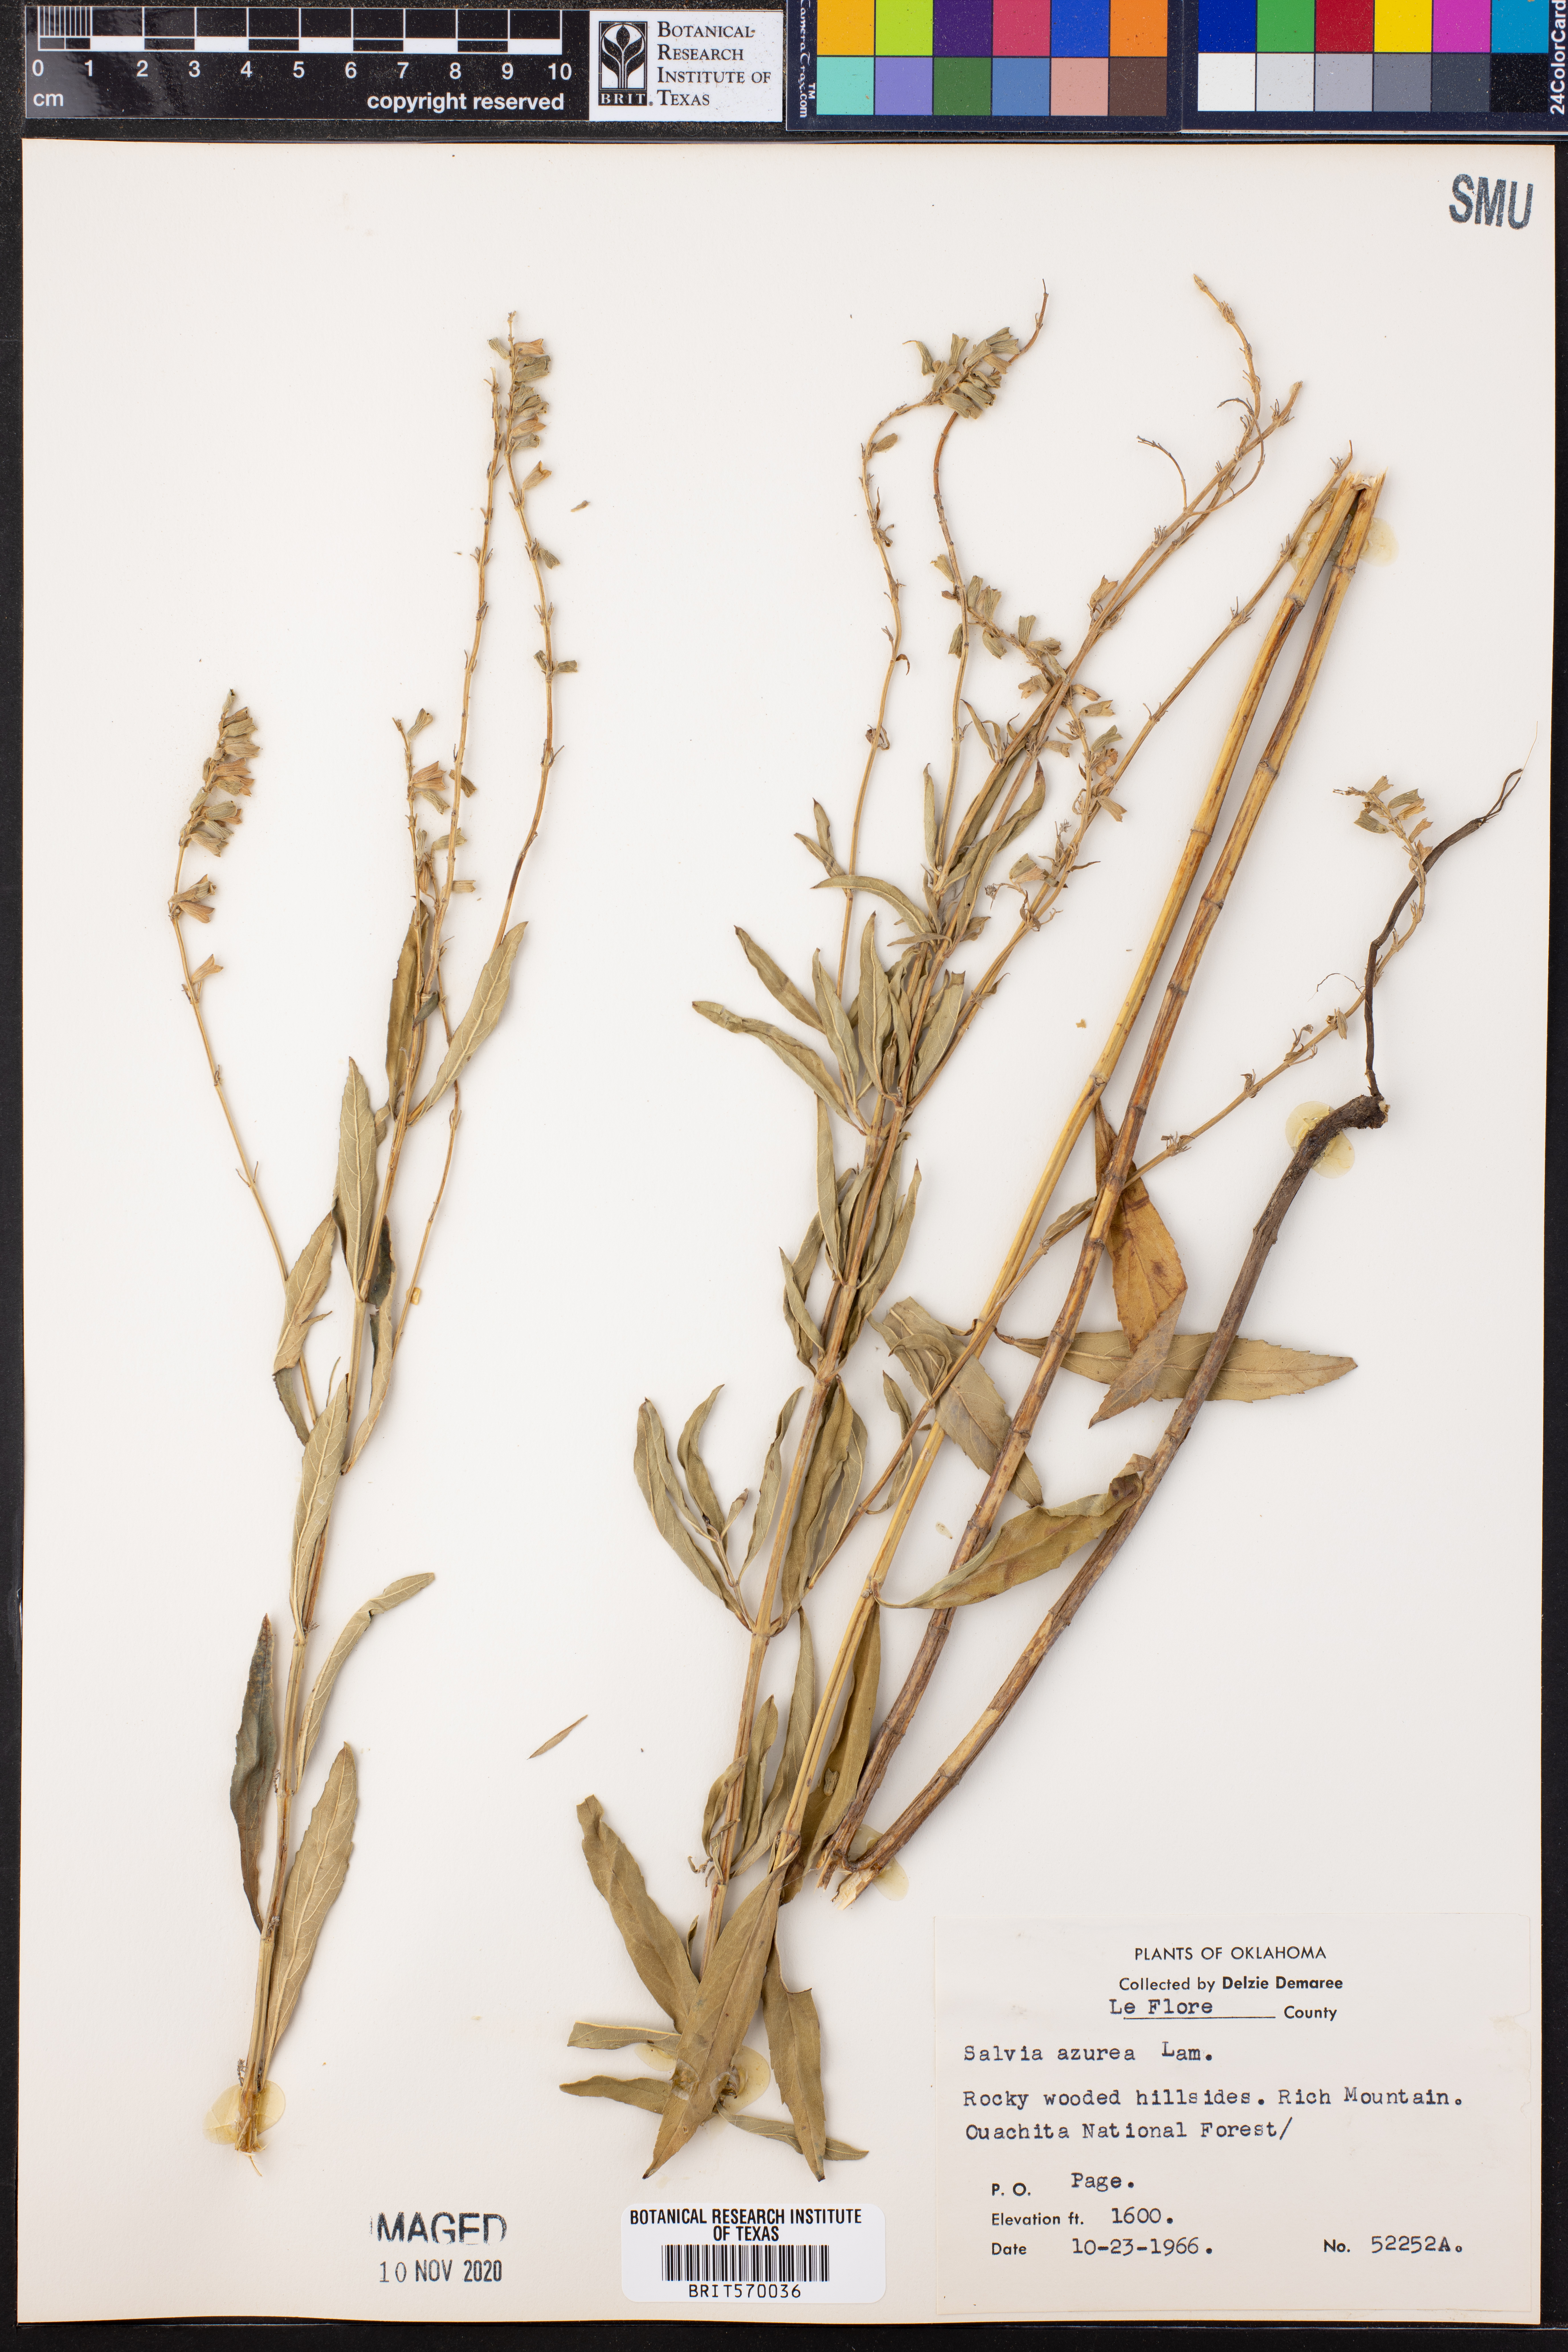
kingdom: Plantae
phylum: Tracheophyta
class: Magnoliopsida
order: Lamiales
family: Lamiaceae
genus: Salvia
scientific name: Salvia azurea
